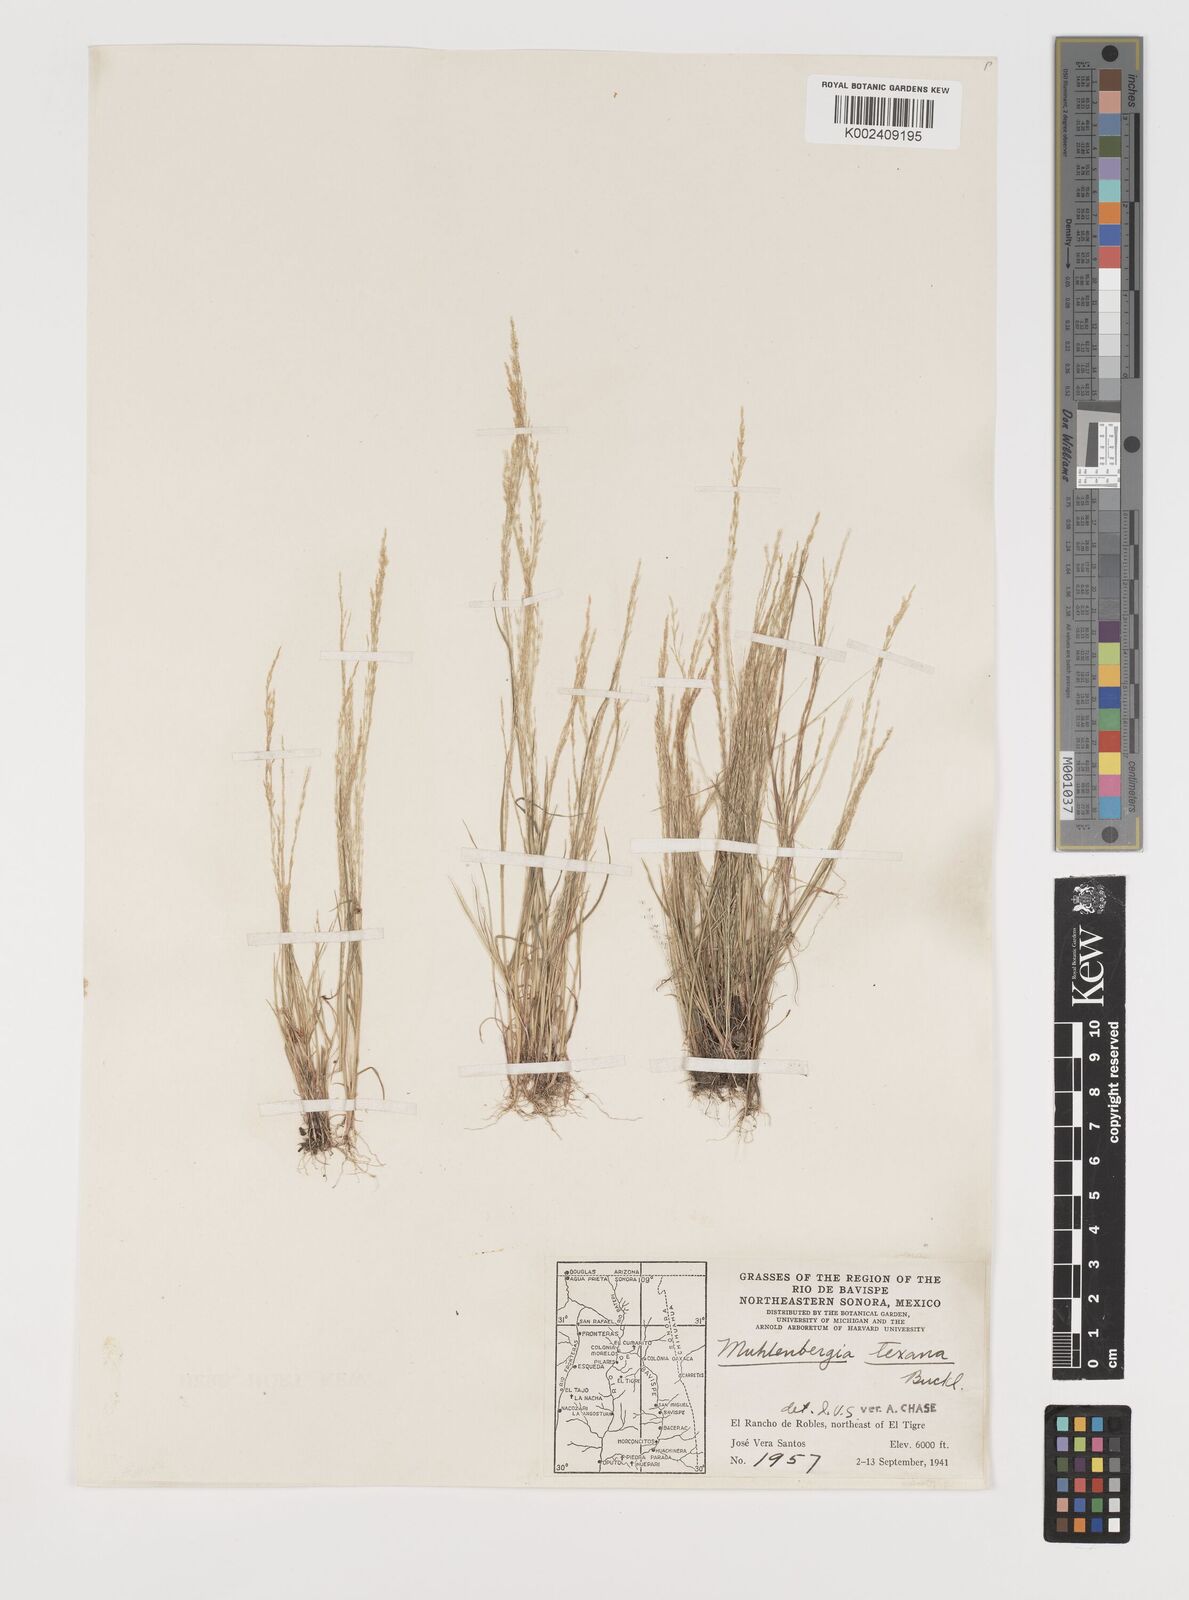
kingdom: Plantae
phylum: Tracheophyta
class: Liliopsida
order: Poales
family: Poaceae
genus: Muhlenbergia
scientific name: Muhlenbergia texana
